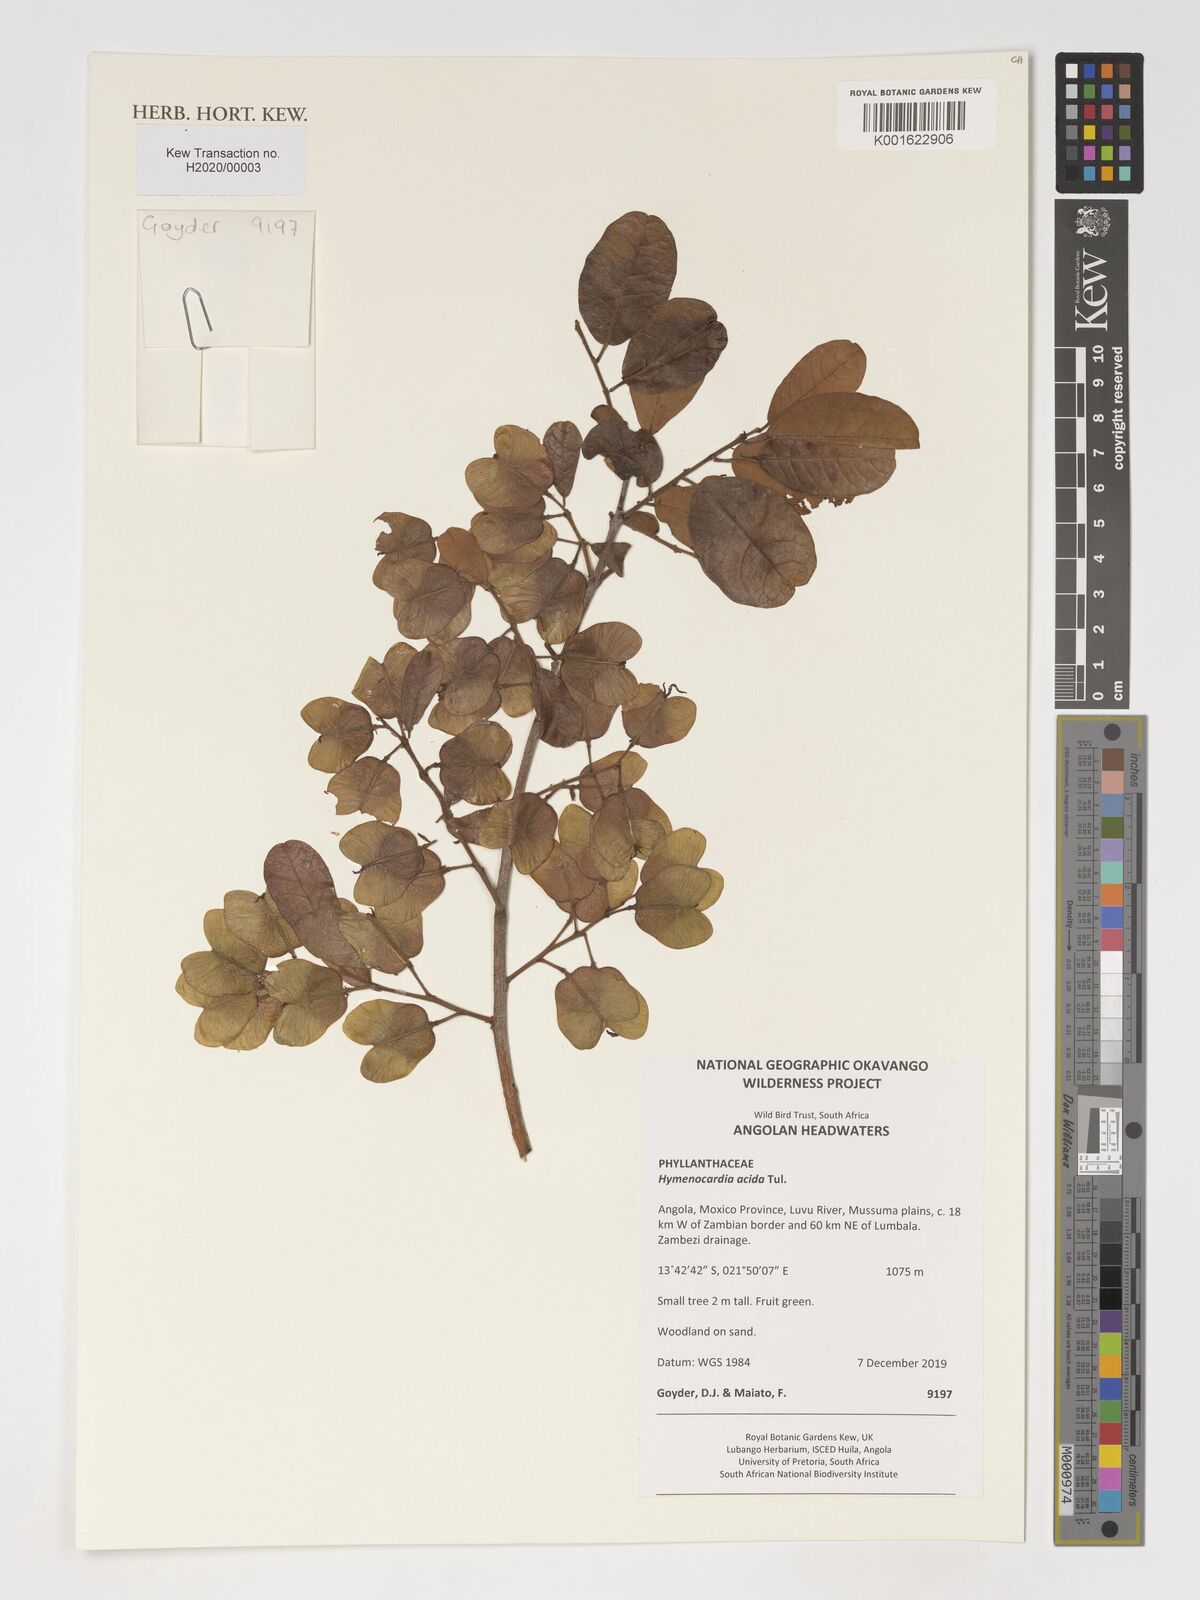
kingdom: Plantae
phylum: Tracheophyta
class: Magnoliopsida
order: Malpighiales
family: Phyllanthaceae
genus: Hymenocardia
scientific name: Hymenocardia acida
